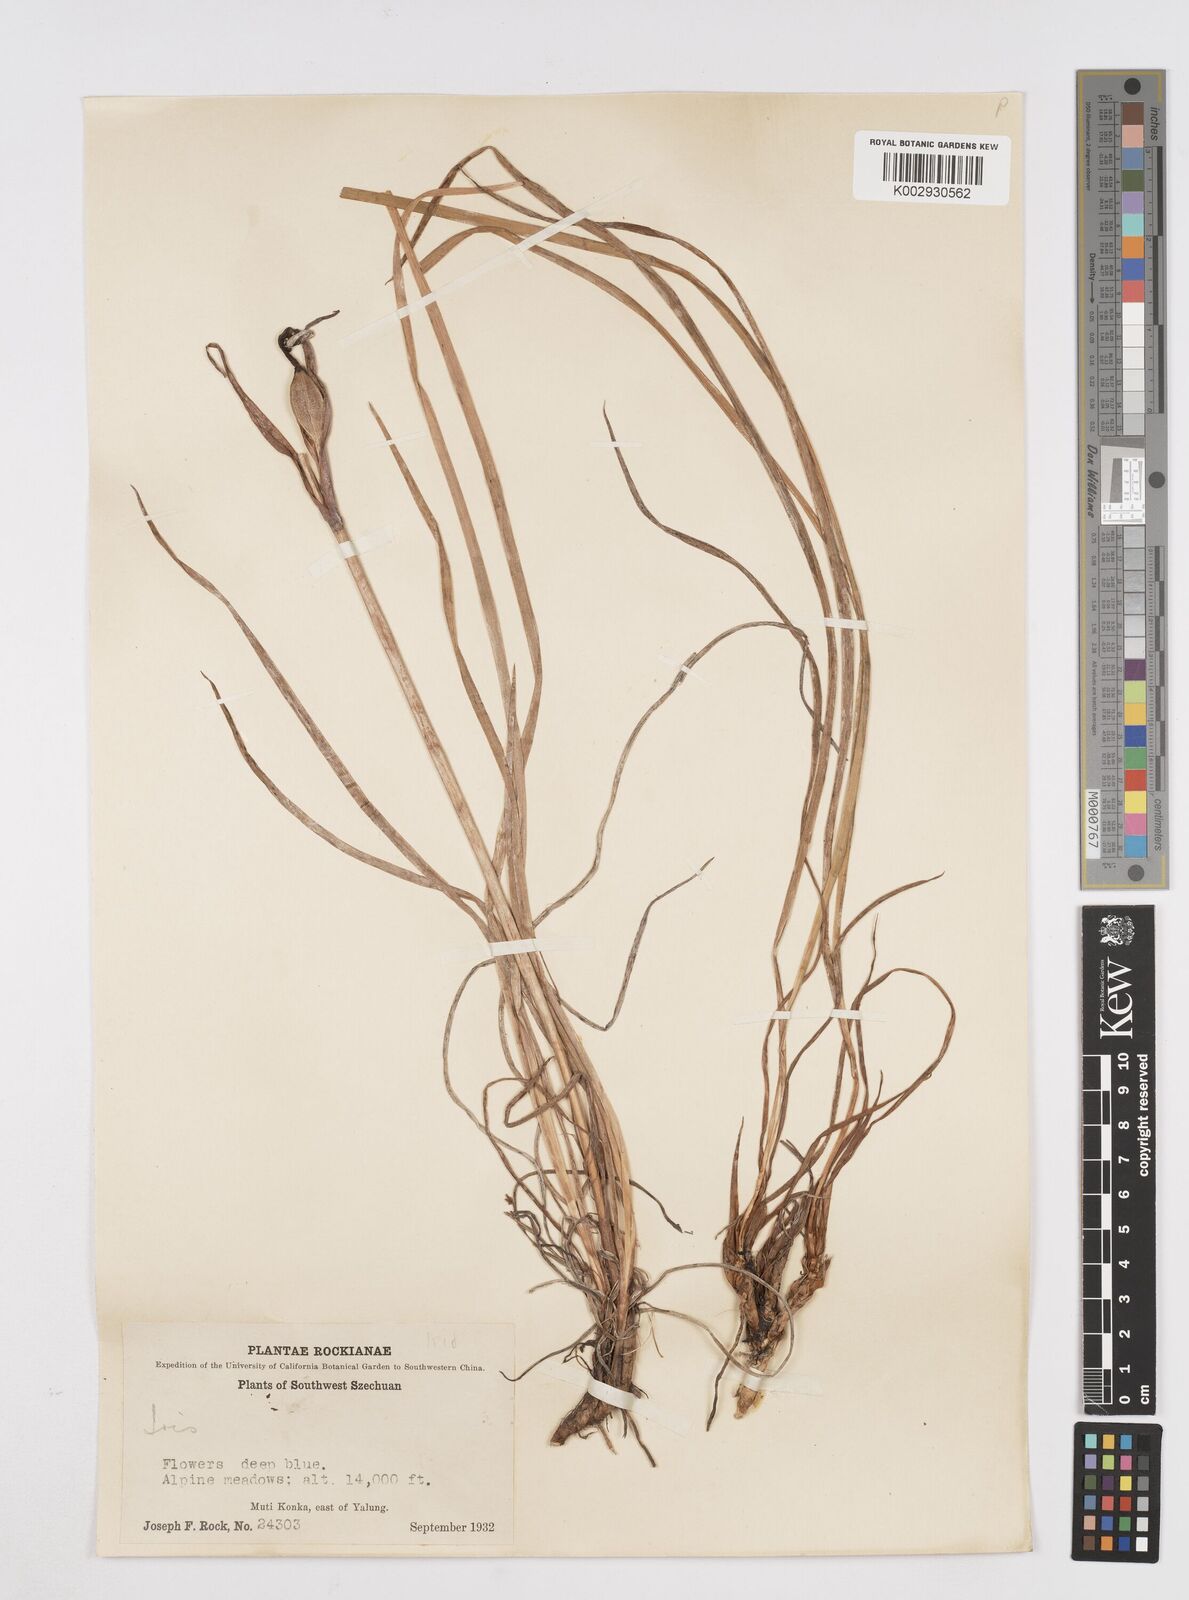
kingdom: Plantae
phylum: Tracheophyta
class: Liliopsida
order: Asparagales
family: Iridaceae
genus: Iris
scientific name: Iris bulleyana
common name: Southwest iris
